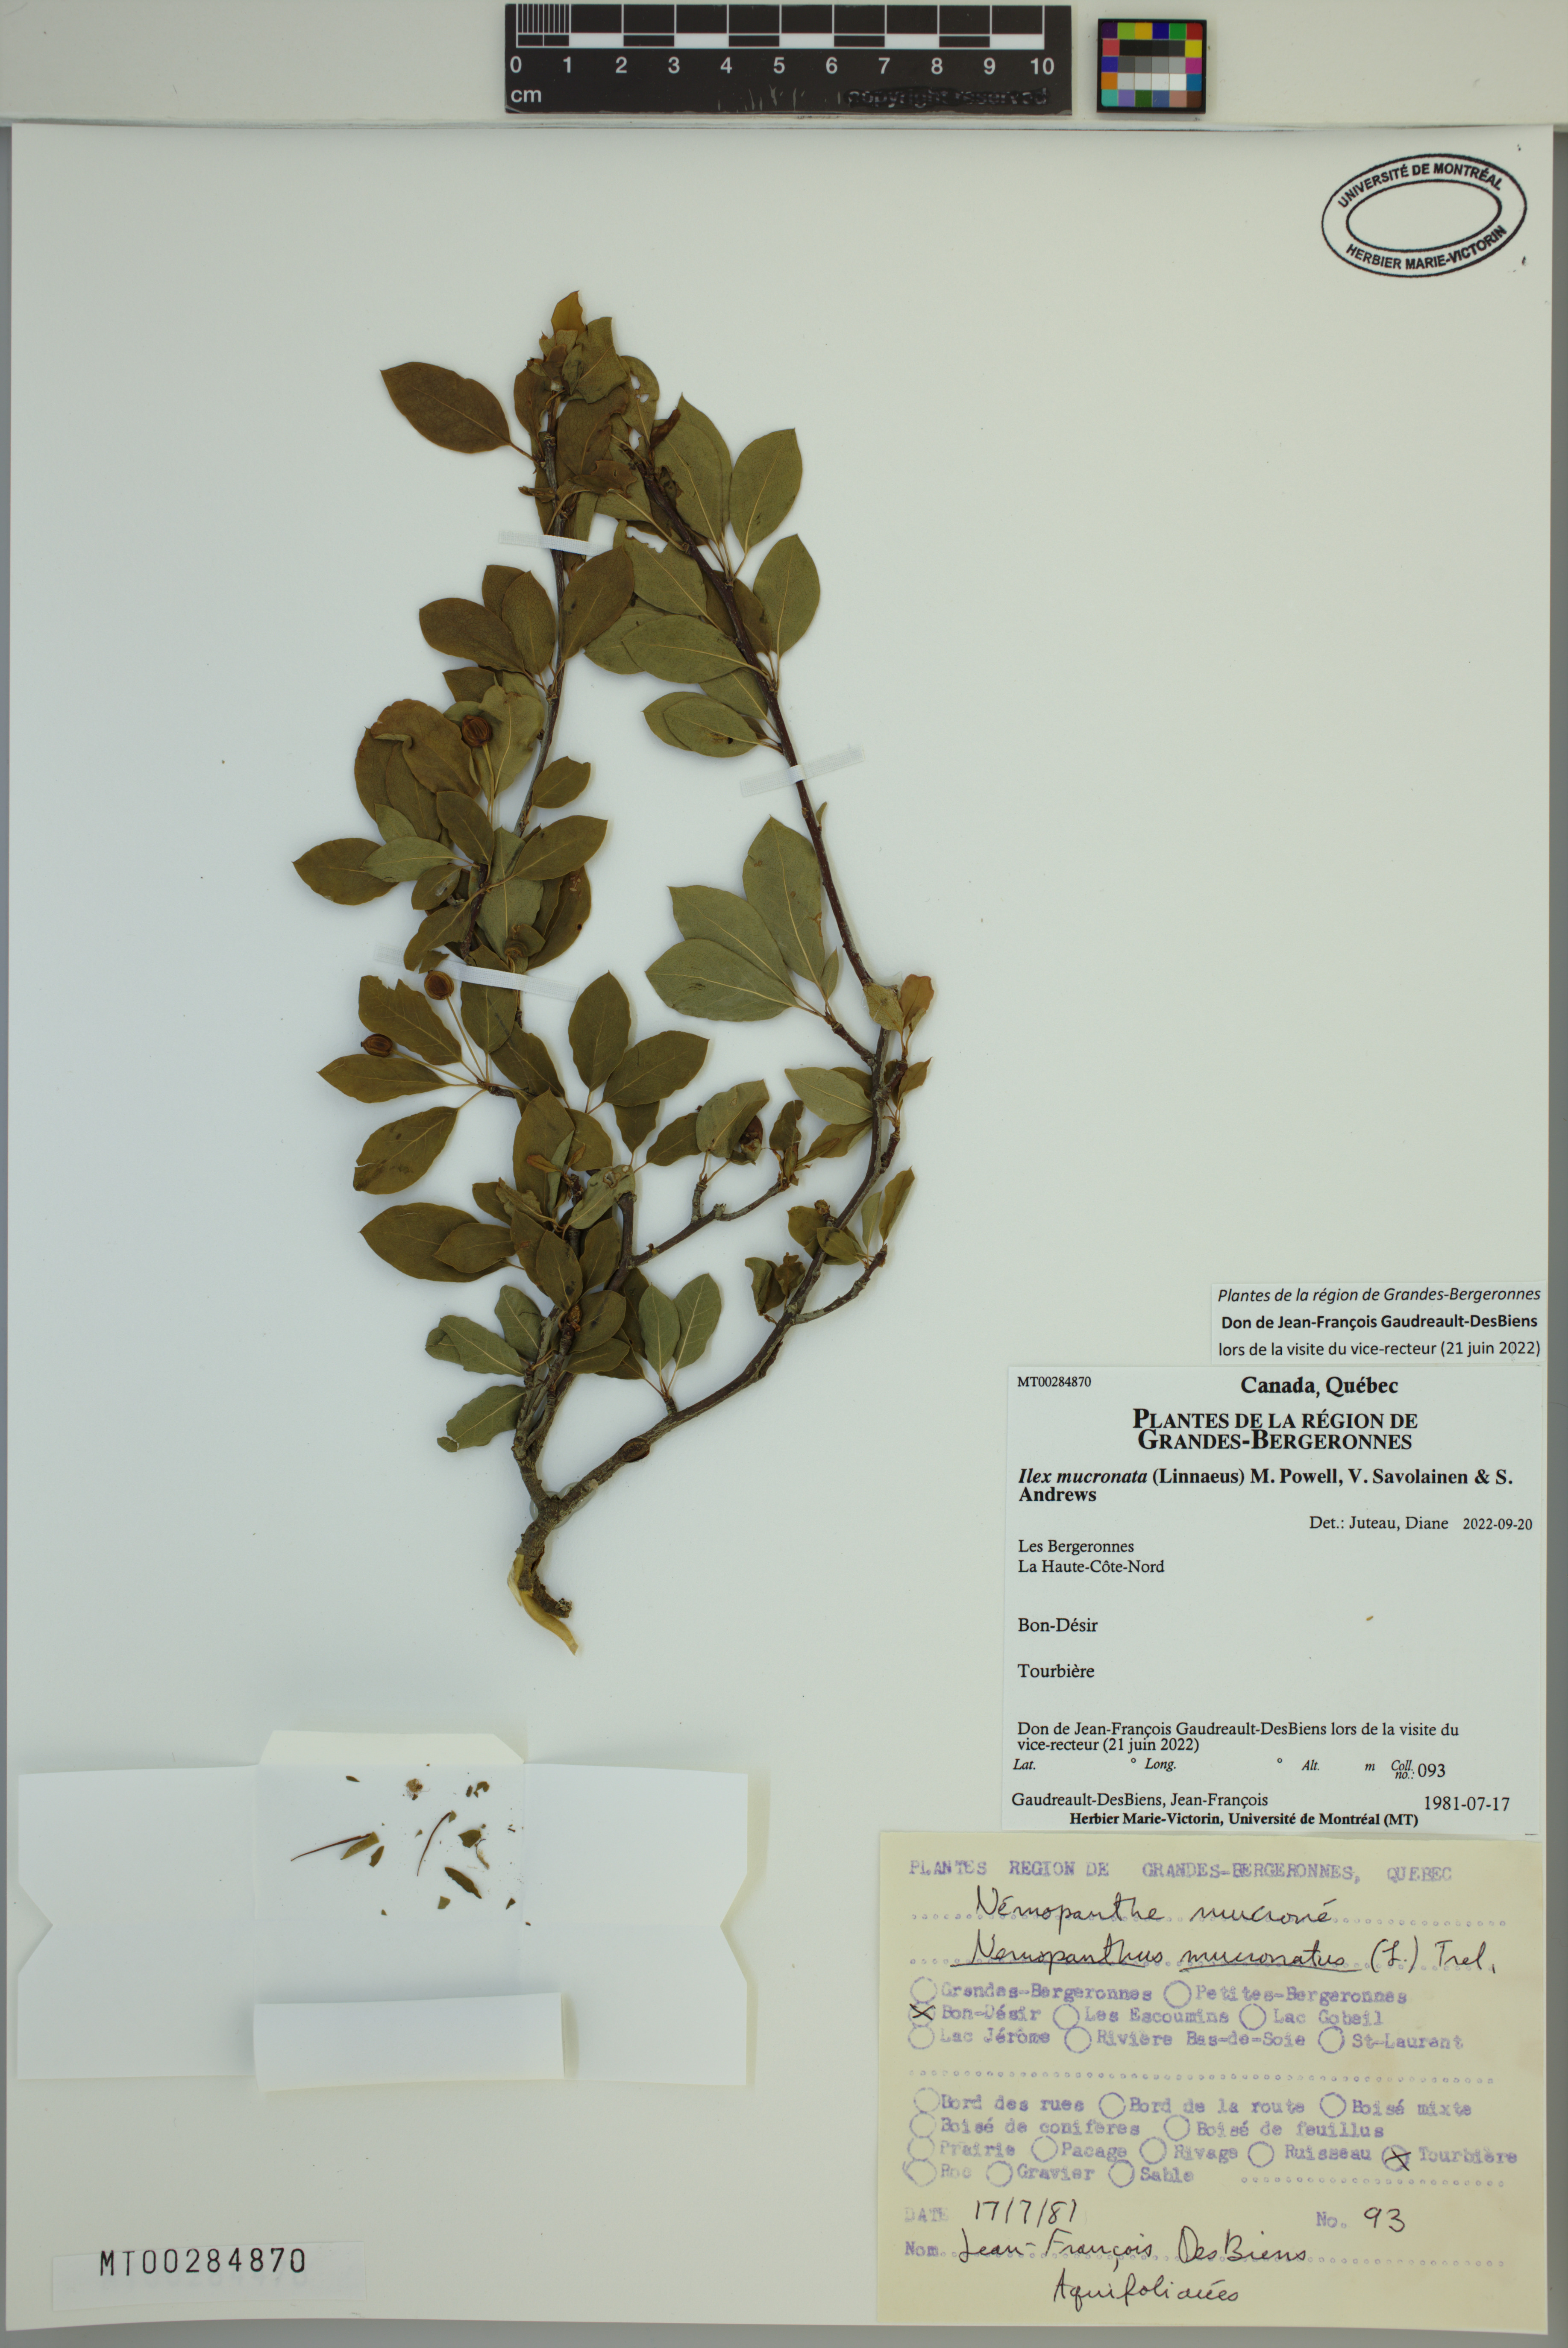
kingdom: Plantae
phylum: Tracheophyta
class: Magnoliopsida
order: Aquifoliales
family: Aquifoliaceae
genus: Ilex
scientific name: Ilex mucronata
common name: Catberry
